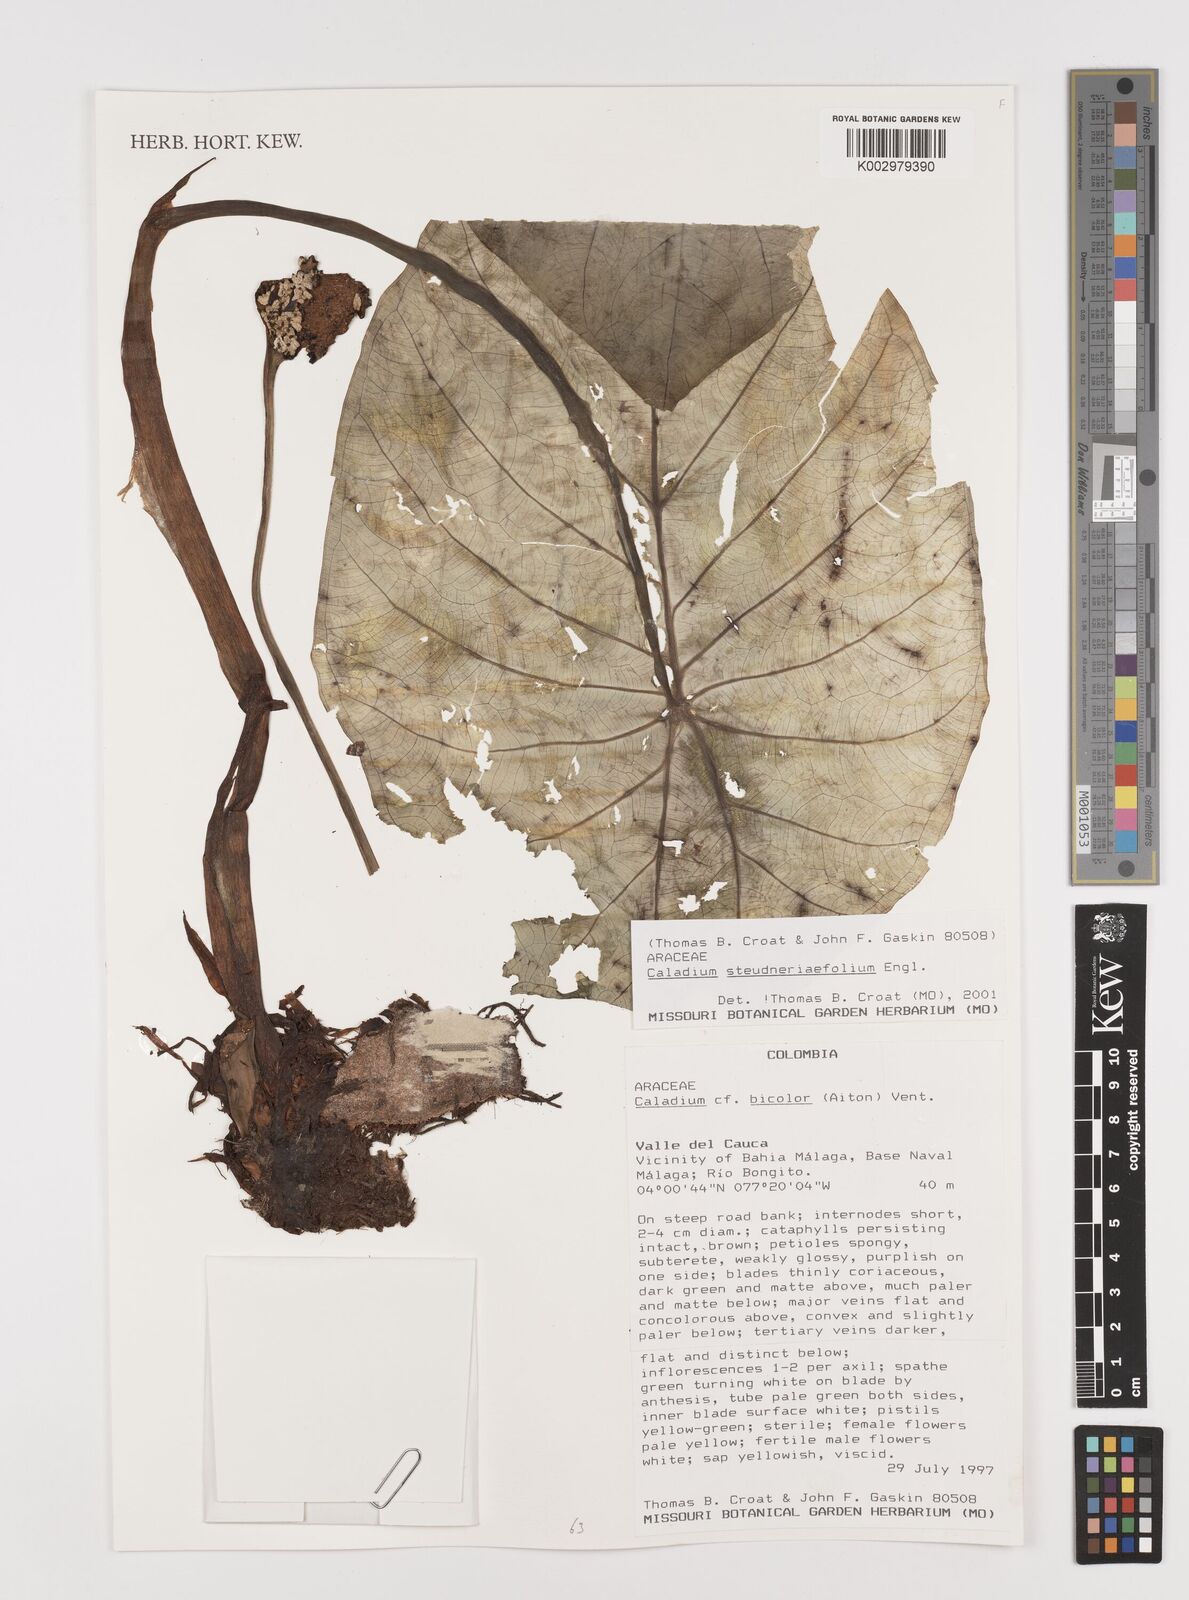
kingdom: Plantae
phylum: Tracheophyta
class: Liliopsida
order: Alismatales
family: Araceae
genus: Caladium
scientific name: Caladium steudnerifolium
